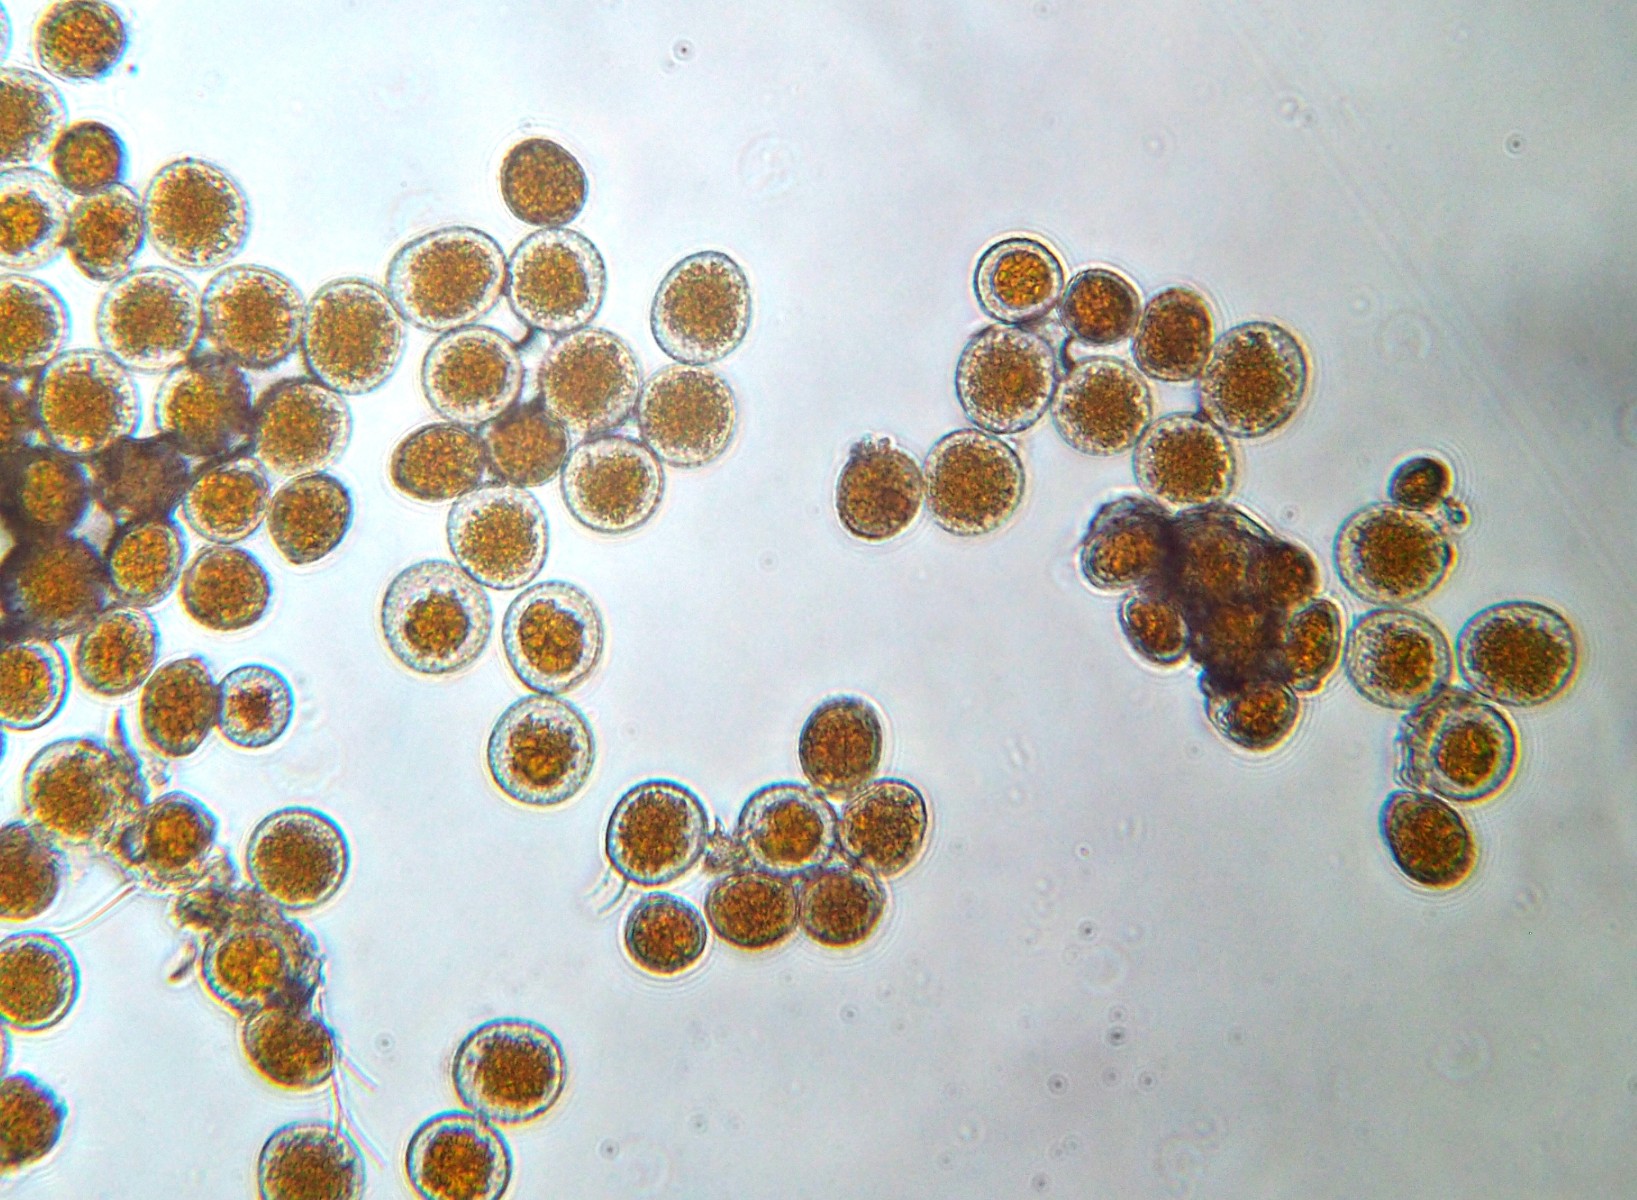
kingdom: Fungi
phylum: Basidiomycota
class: Pucciniomycetes
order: Pucciniales
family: Pucciniaceae
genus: Puccinia
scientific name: Puccinia coronata
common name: Crown rust
